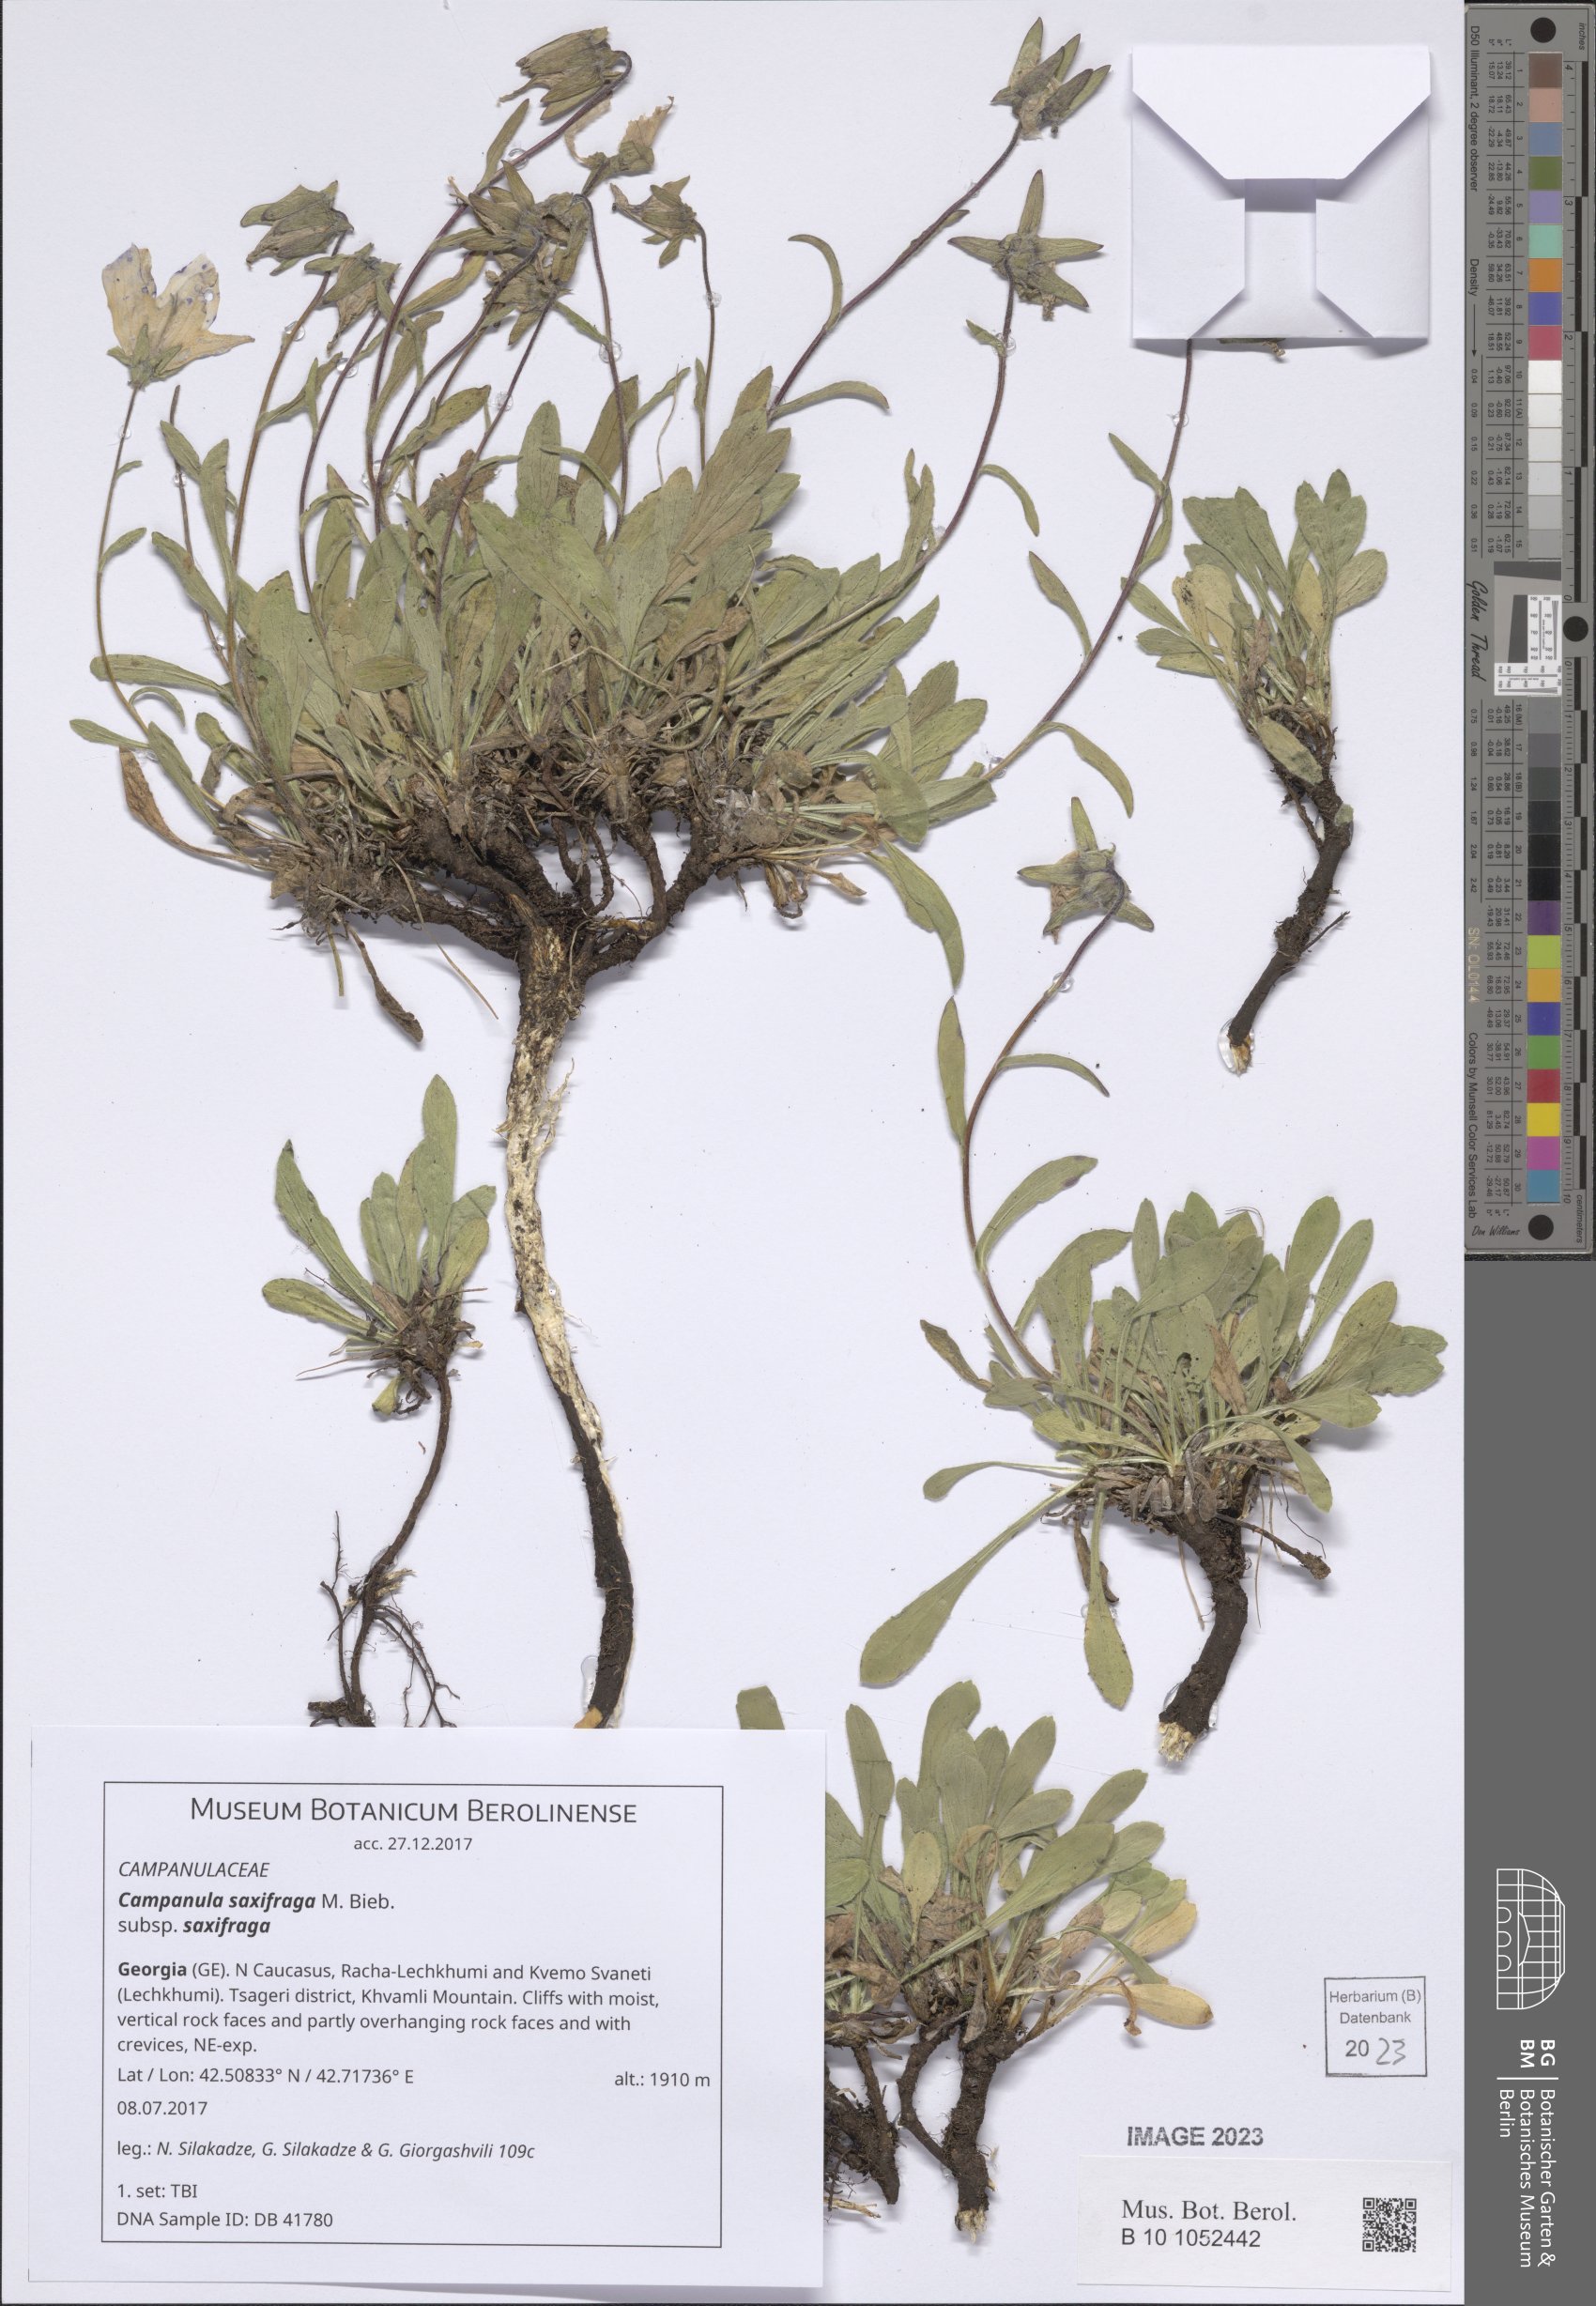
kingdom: Plantae
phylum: Tracheophyta
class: Magnoliopsida
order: Asterales
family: Campanulaceae
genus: Campanula
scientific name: Campanula saxifraga
